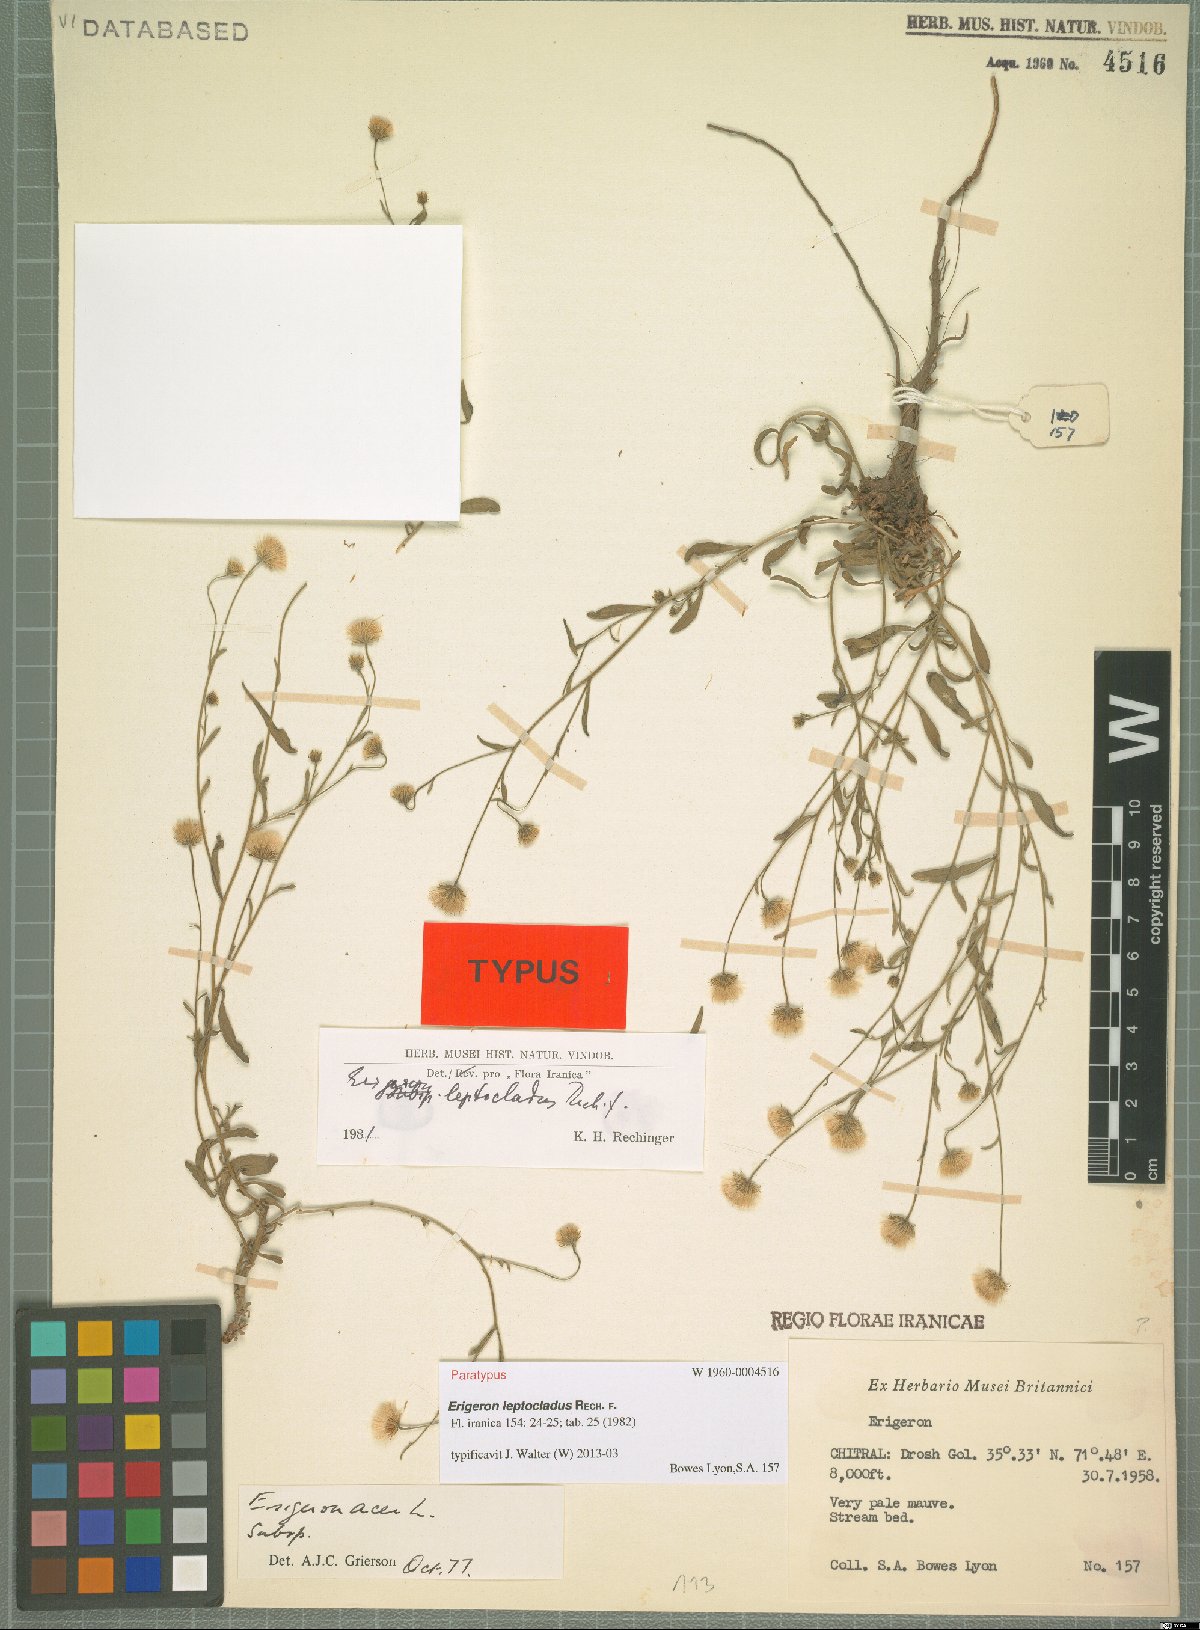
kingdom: Plantae
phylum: Tracheophyta
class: Magnoliopsida
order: Asterales
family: Asteraceae
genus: Erigeron
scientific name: Erigeron leptocladus
